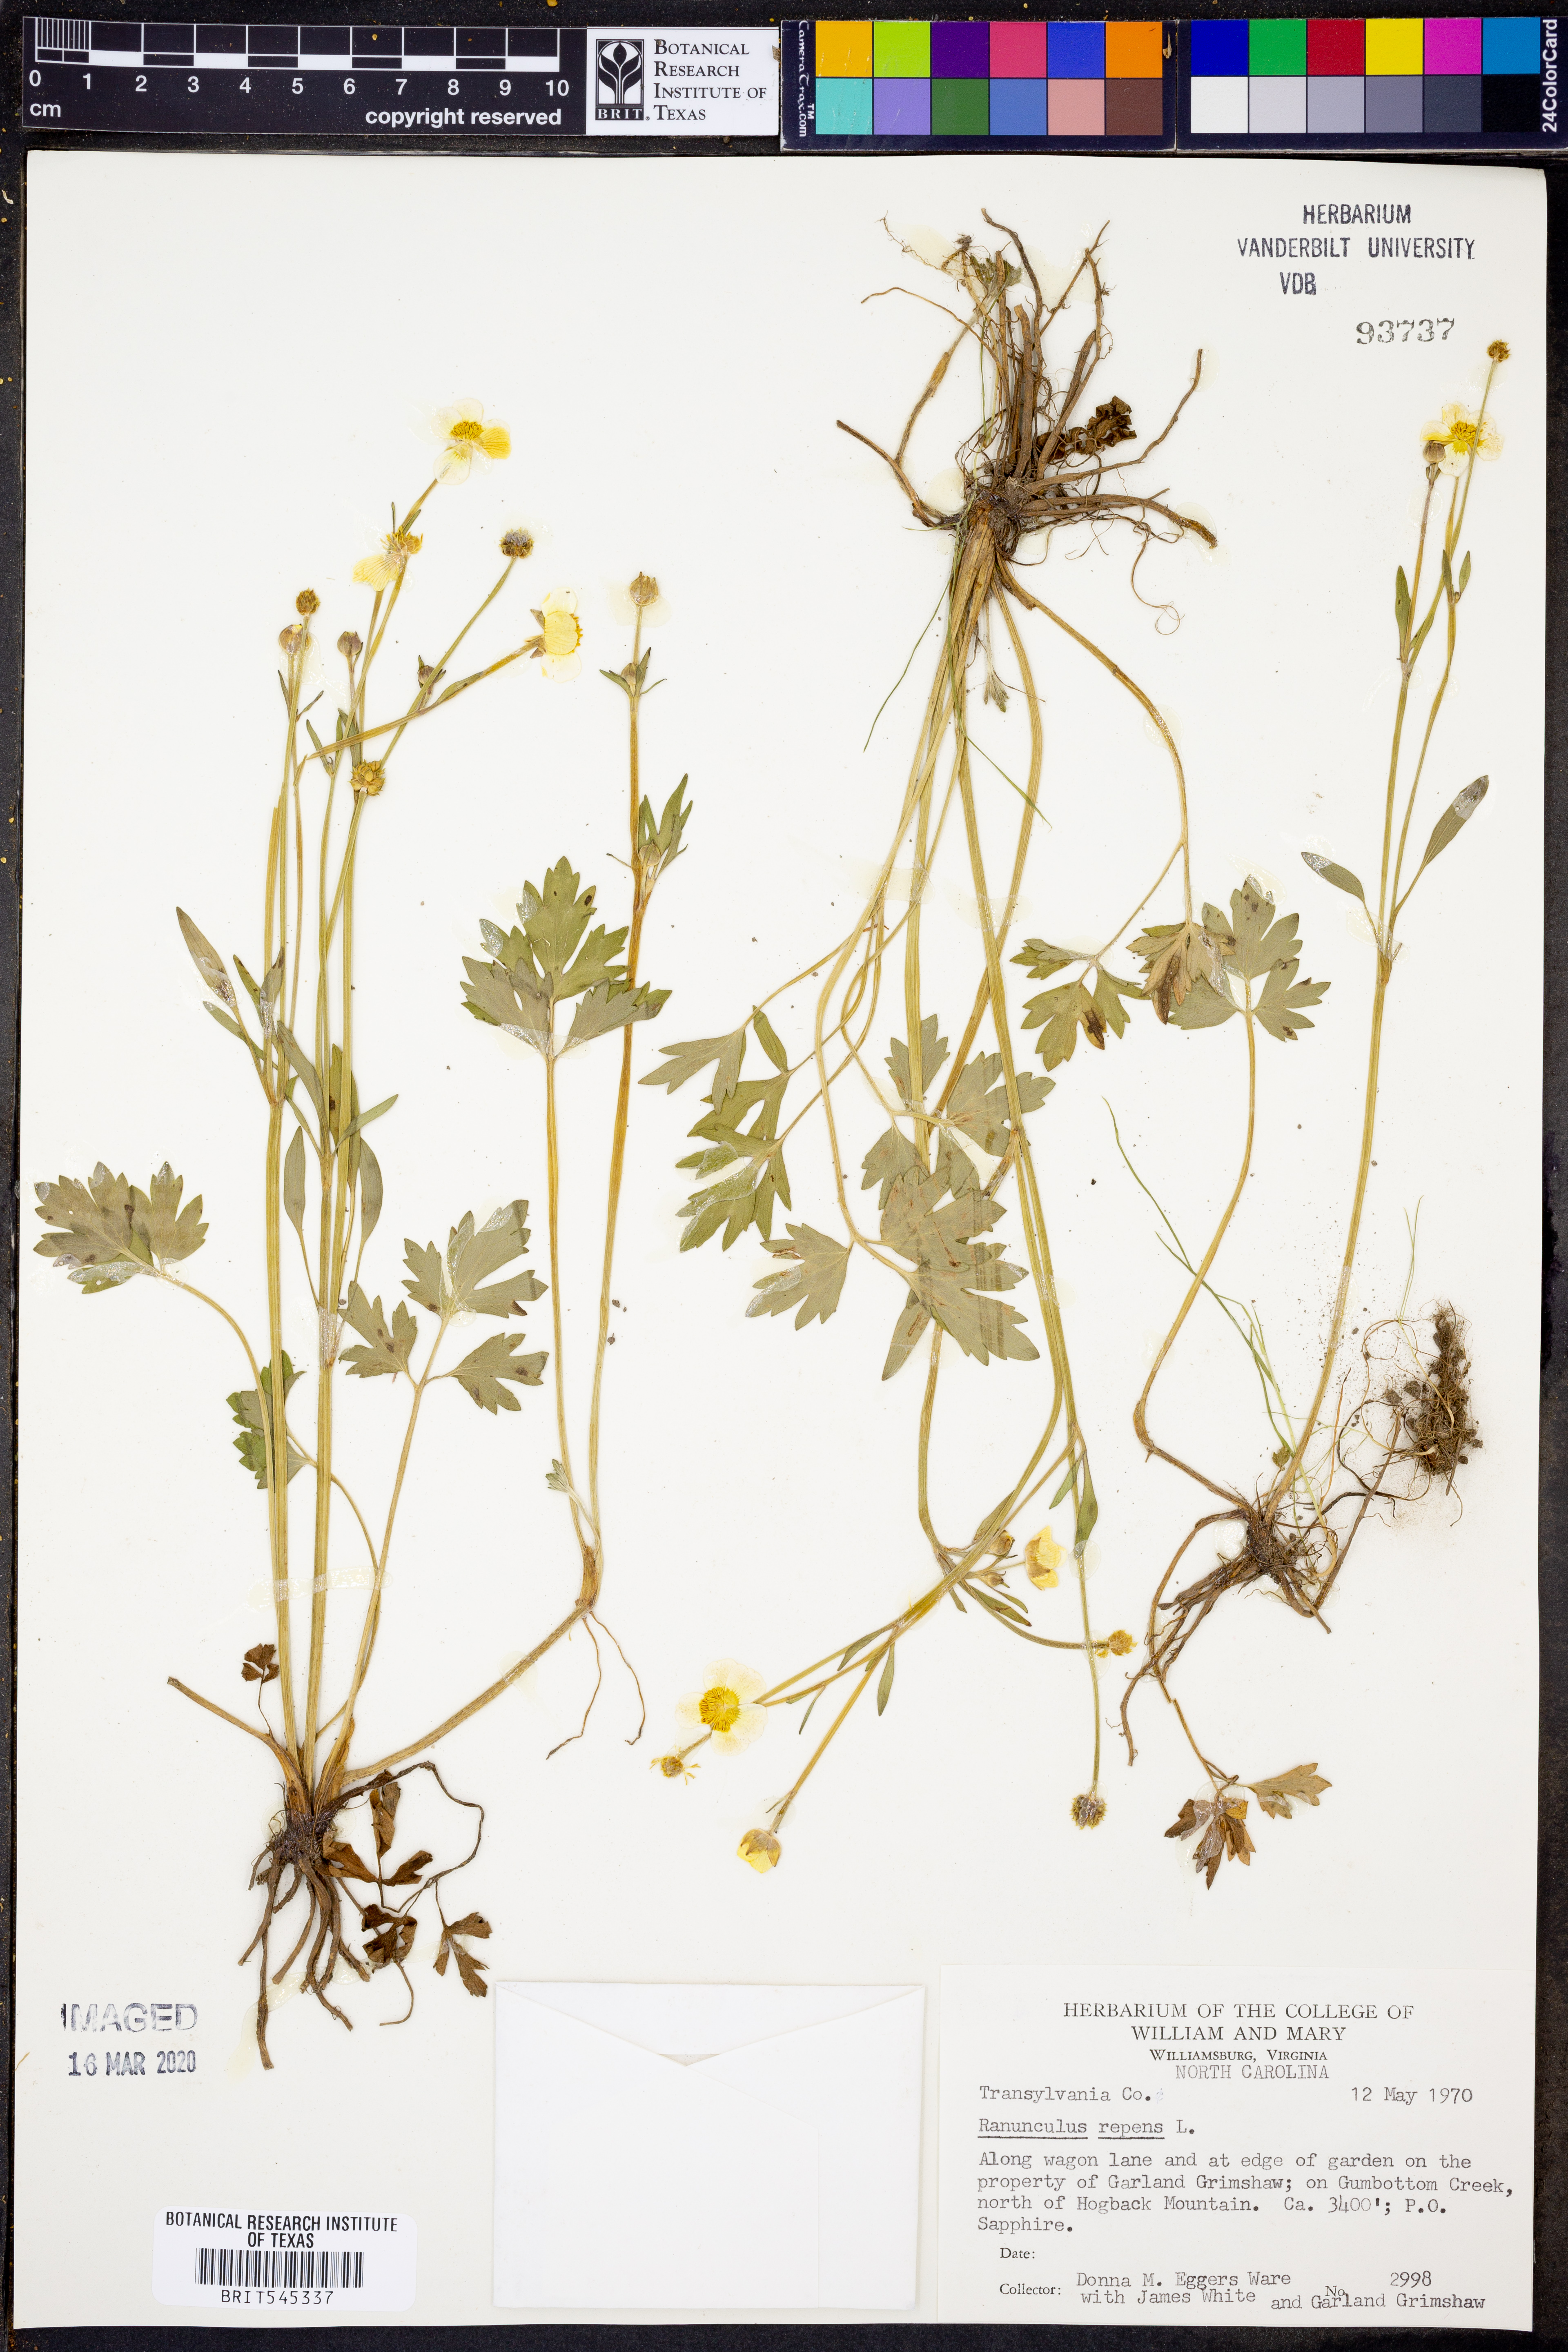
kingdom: Plantae
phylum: Tracheophyta
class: Magnoliopsida
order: Ranunculales
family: Ranunculaceae
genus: Ranunculus
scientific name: Ranunculus repens
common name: Creeping buttercup
